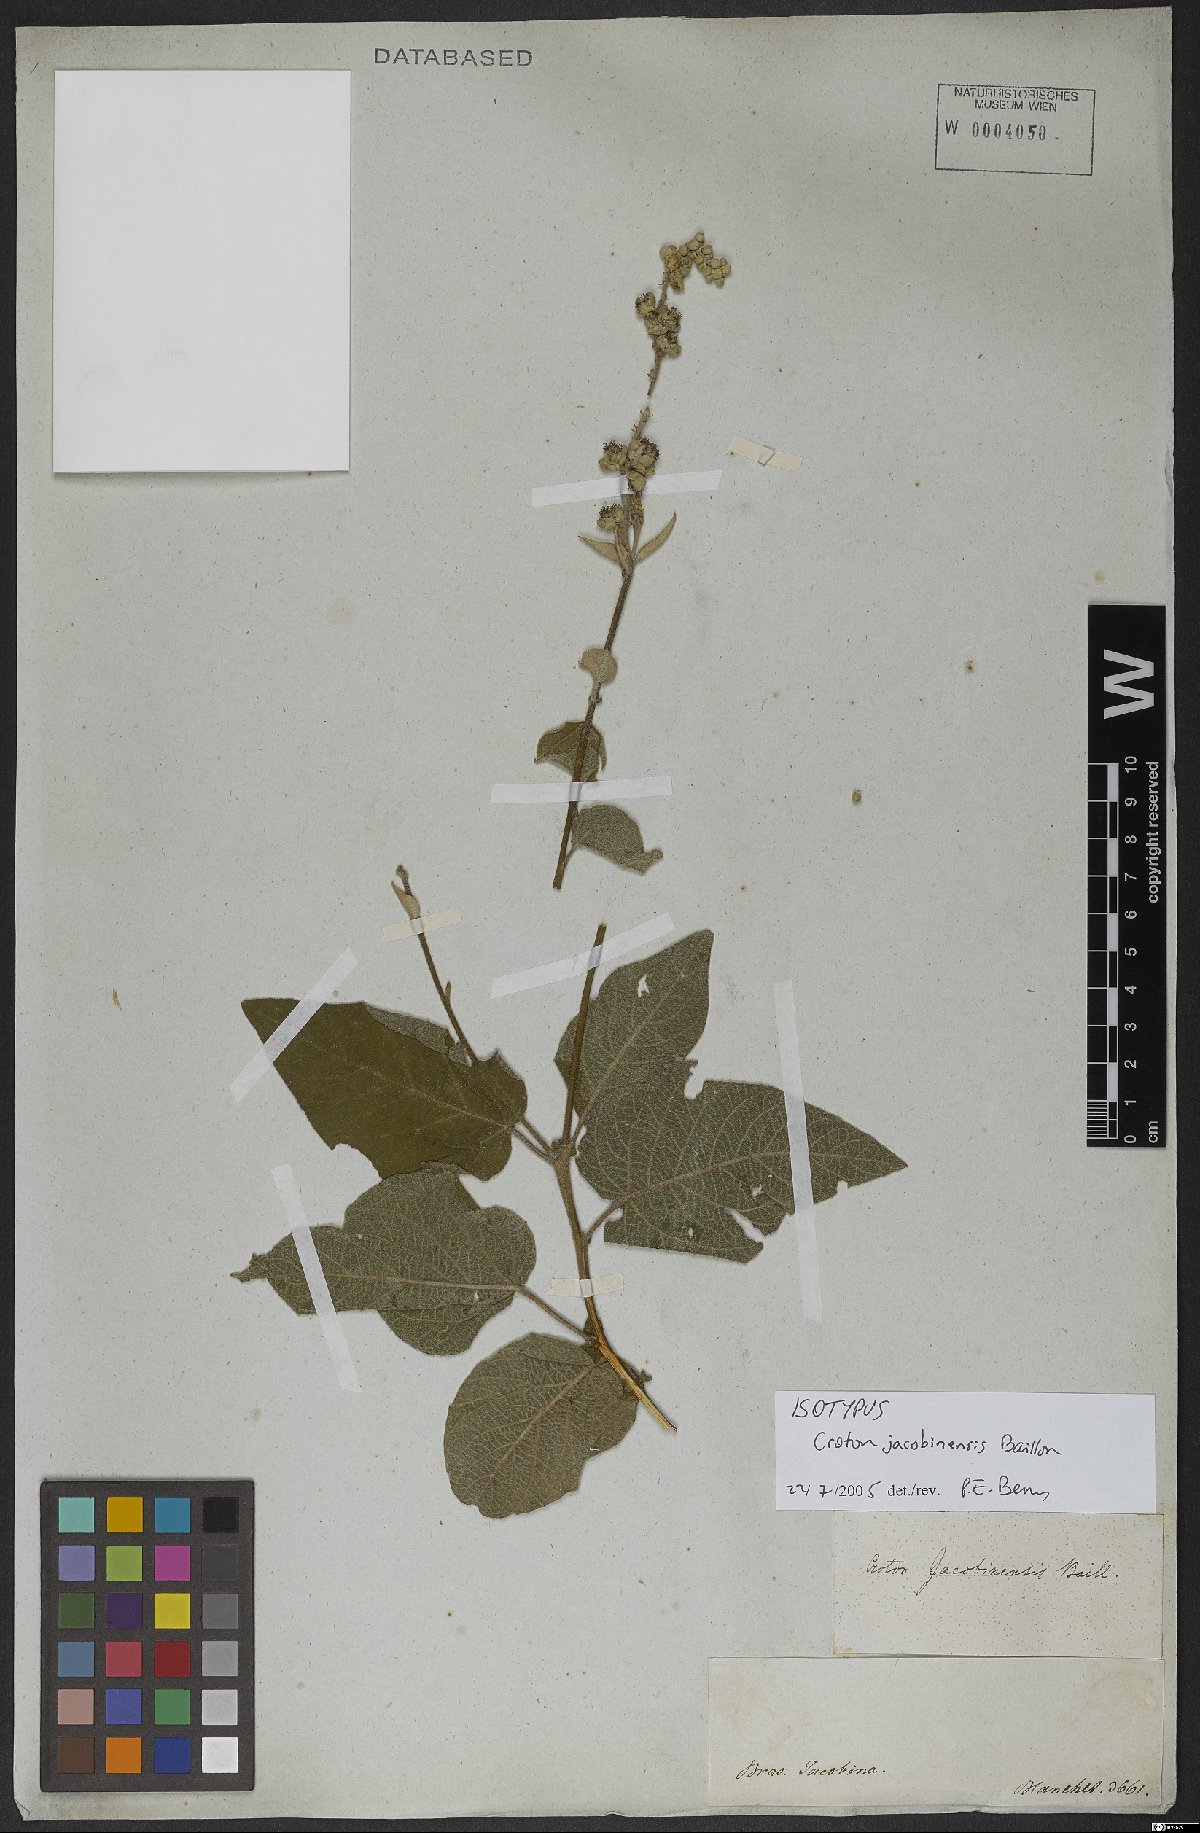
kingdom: Plantae
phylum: Tracheophyta
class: Magnoliopsida
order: Malpighiales
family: Euphorbiaceae
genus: Croton
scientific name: Croton jacobinensis
